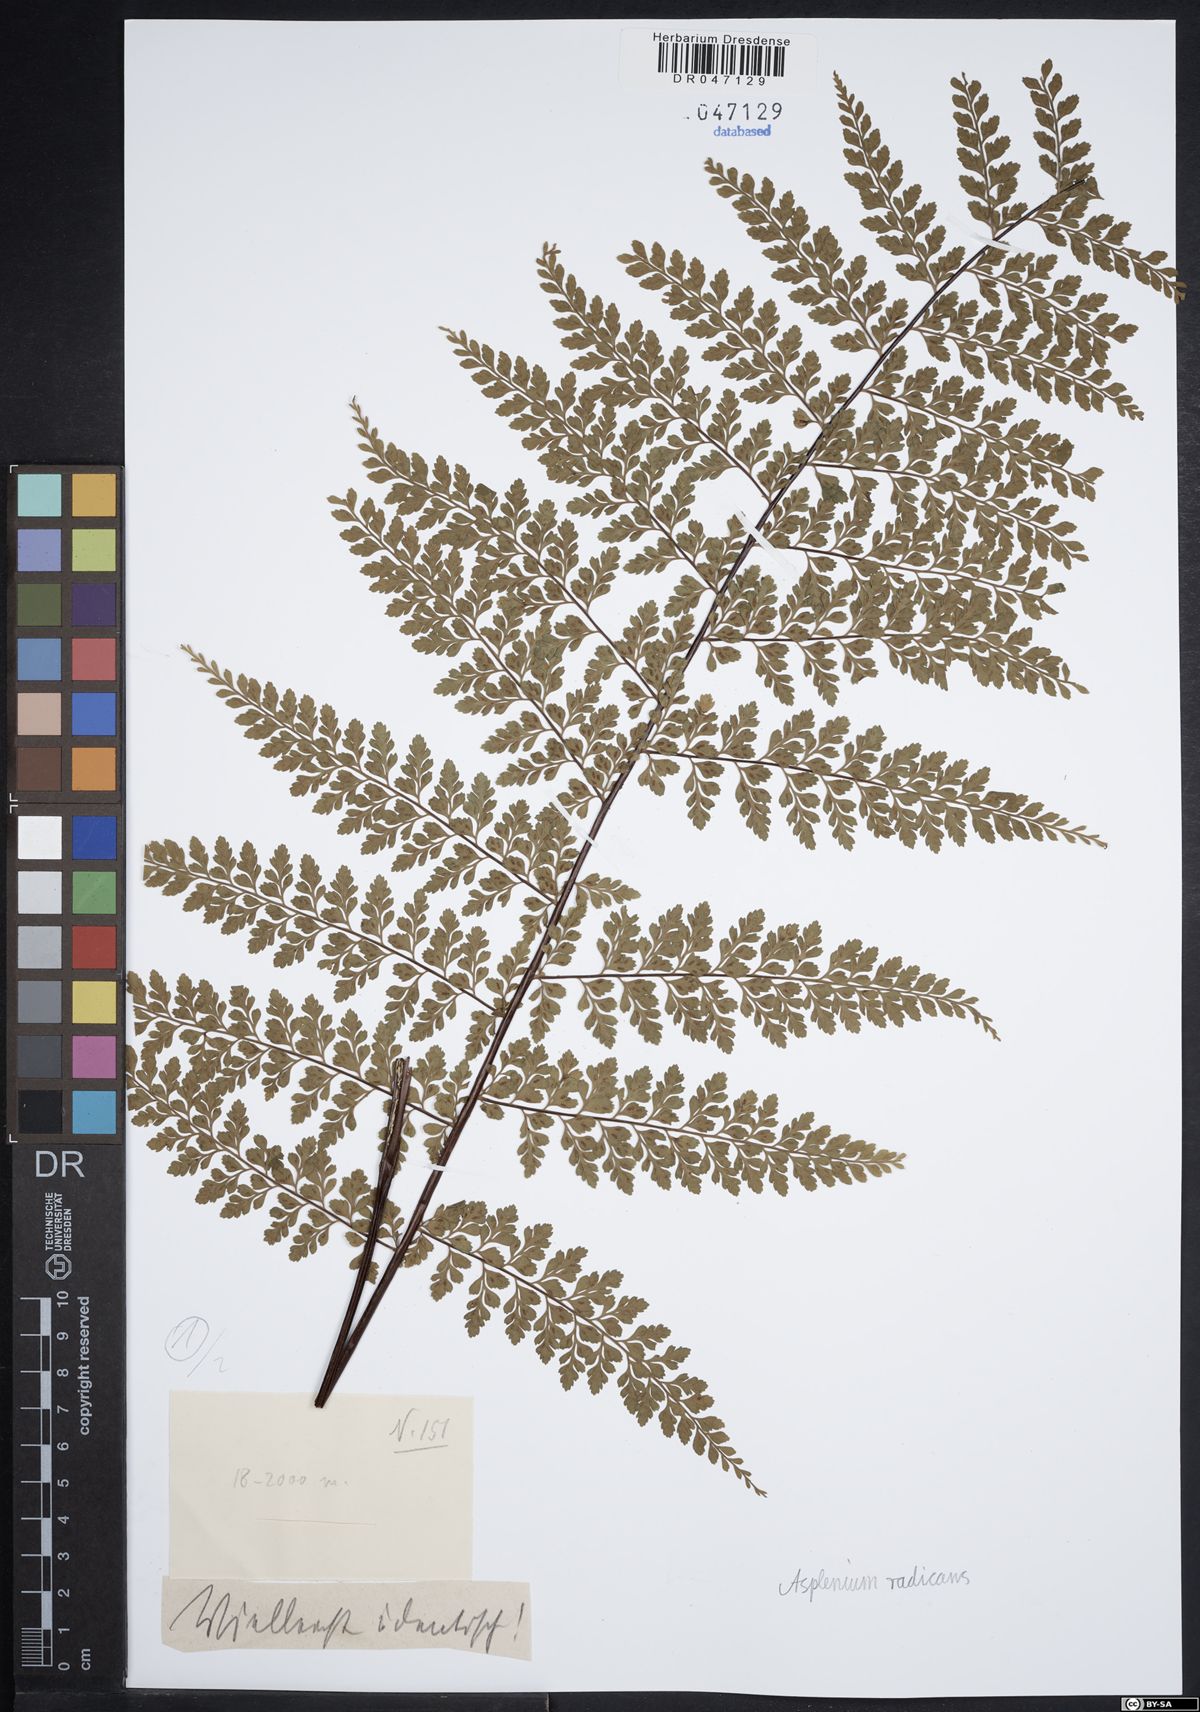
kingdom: Plantae
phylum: Tracheophyta
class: Polypodiopsida
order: Polypodiales
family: Aspleniaceae
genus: Asplenium
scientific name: Asplenium radicans
